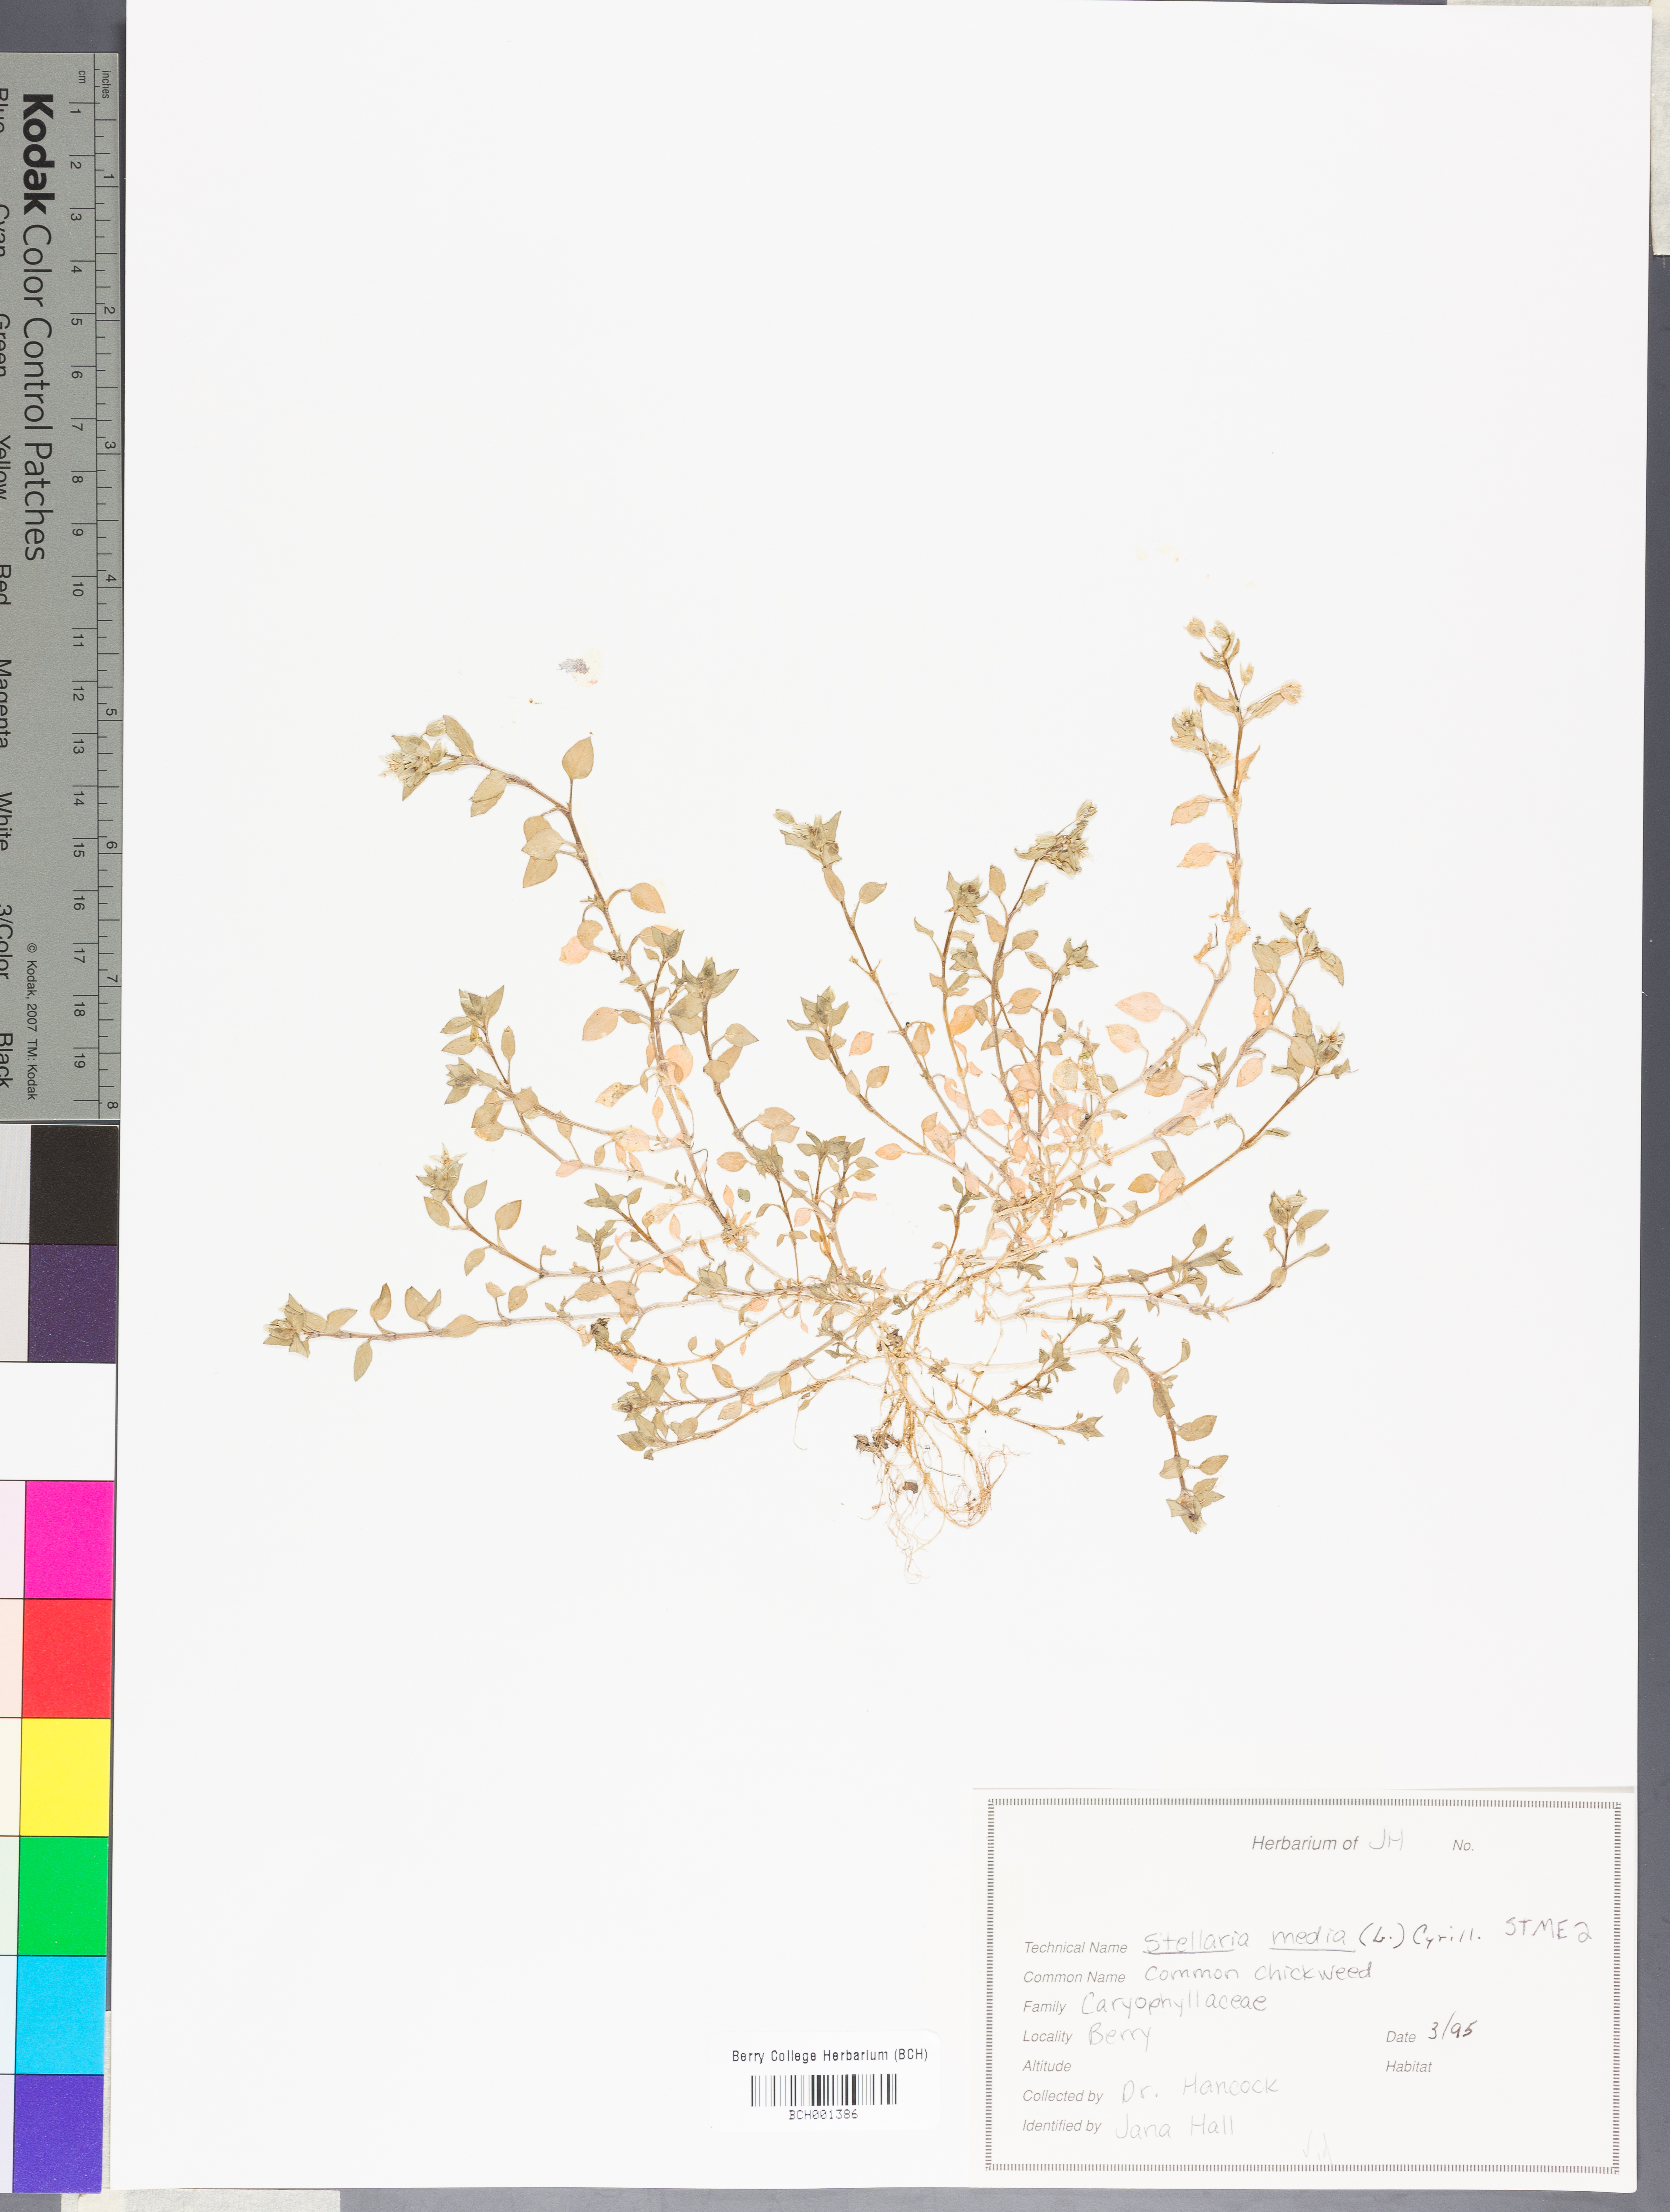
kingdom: Plantae
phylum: Tracheophyta
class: Magnoliopsida
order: Caryophyllales
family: Caryophyllaceae
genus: Stellaria
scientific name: Stellaria media
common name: Common chickweed
